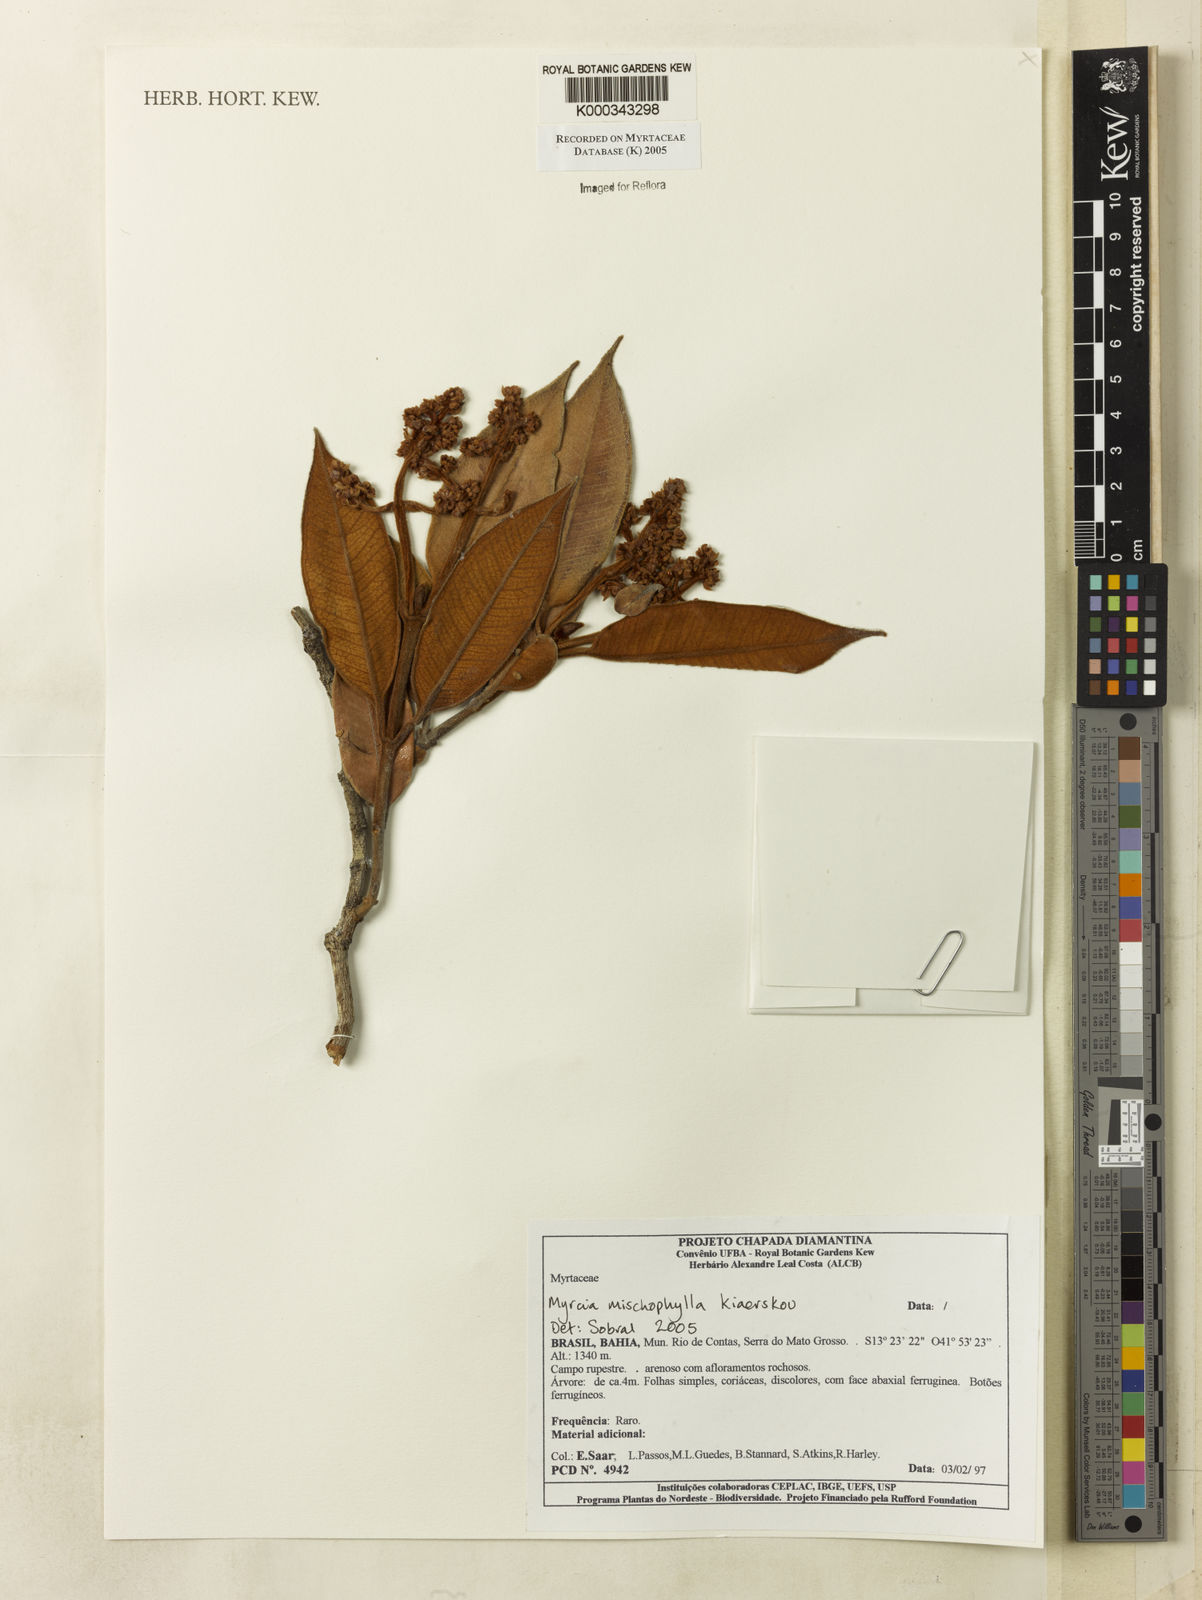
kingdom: Plantae
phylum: Tracheophyta
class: Magnoliopsida
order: Myrtales
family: Myrtaceae
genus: Myrcia
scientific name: Myrcia mischophylla
